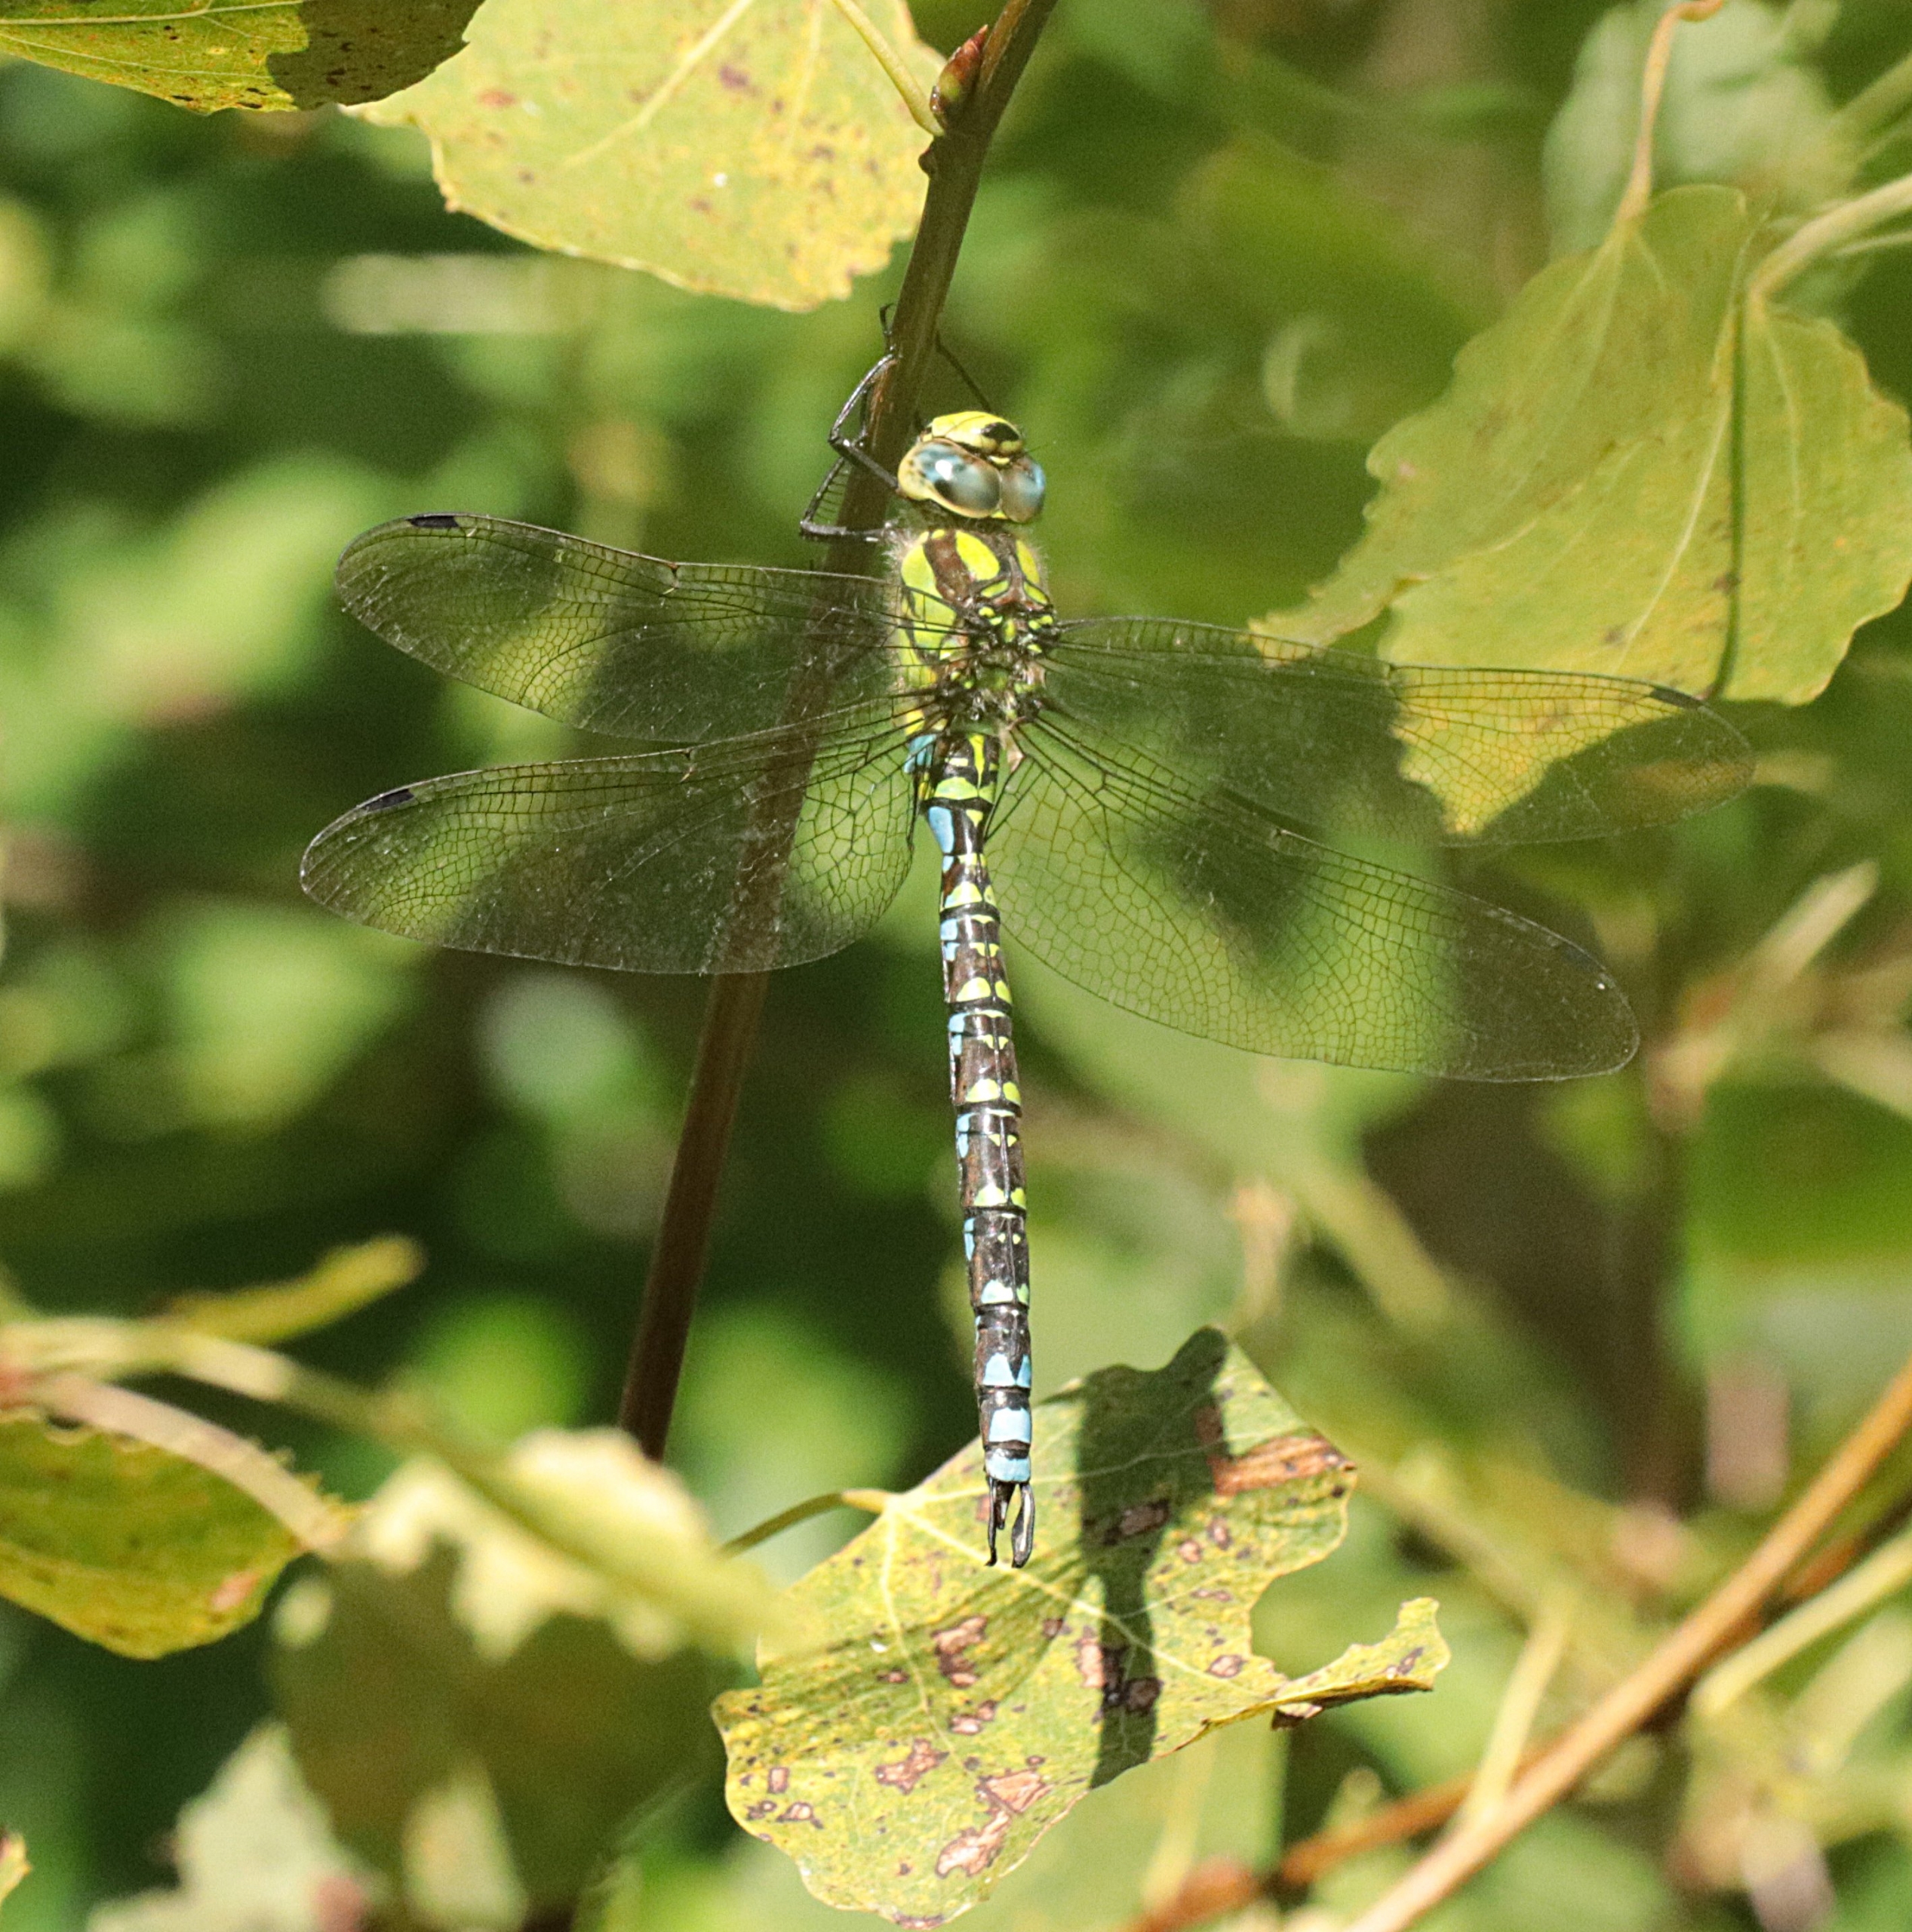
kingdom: Animalia
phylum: Arthropoda
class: Insecta
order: Odonata
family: Aeshnidae
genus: Aeshna
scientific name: Aeshna cyanea
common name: Blå mosaikguldsmed
